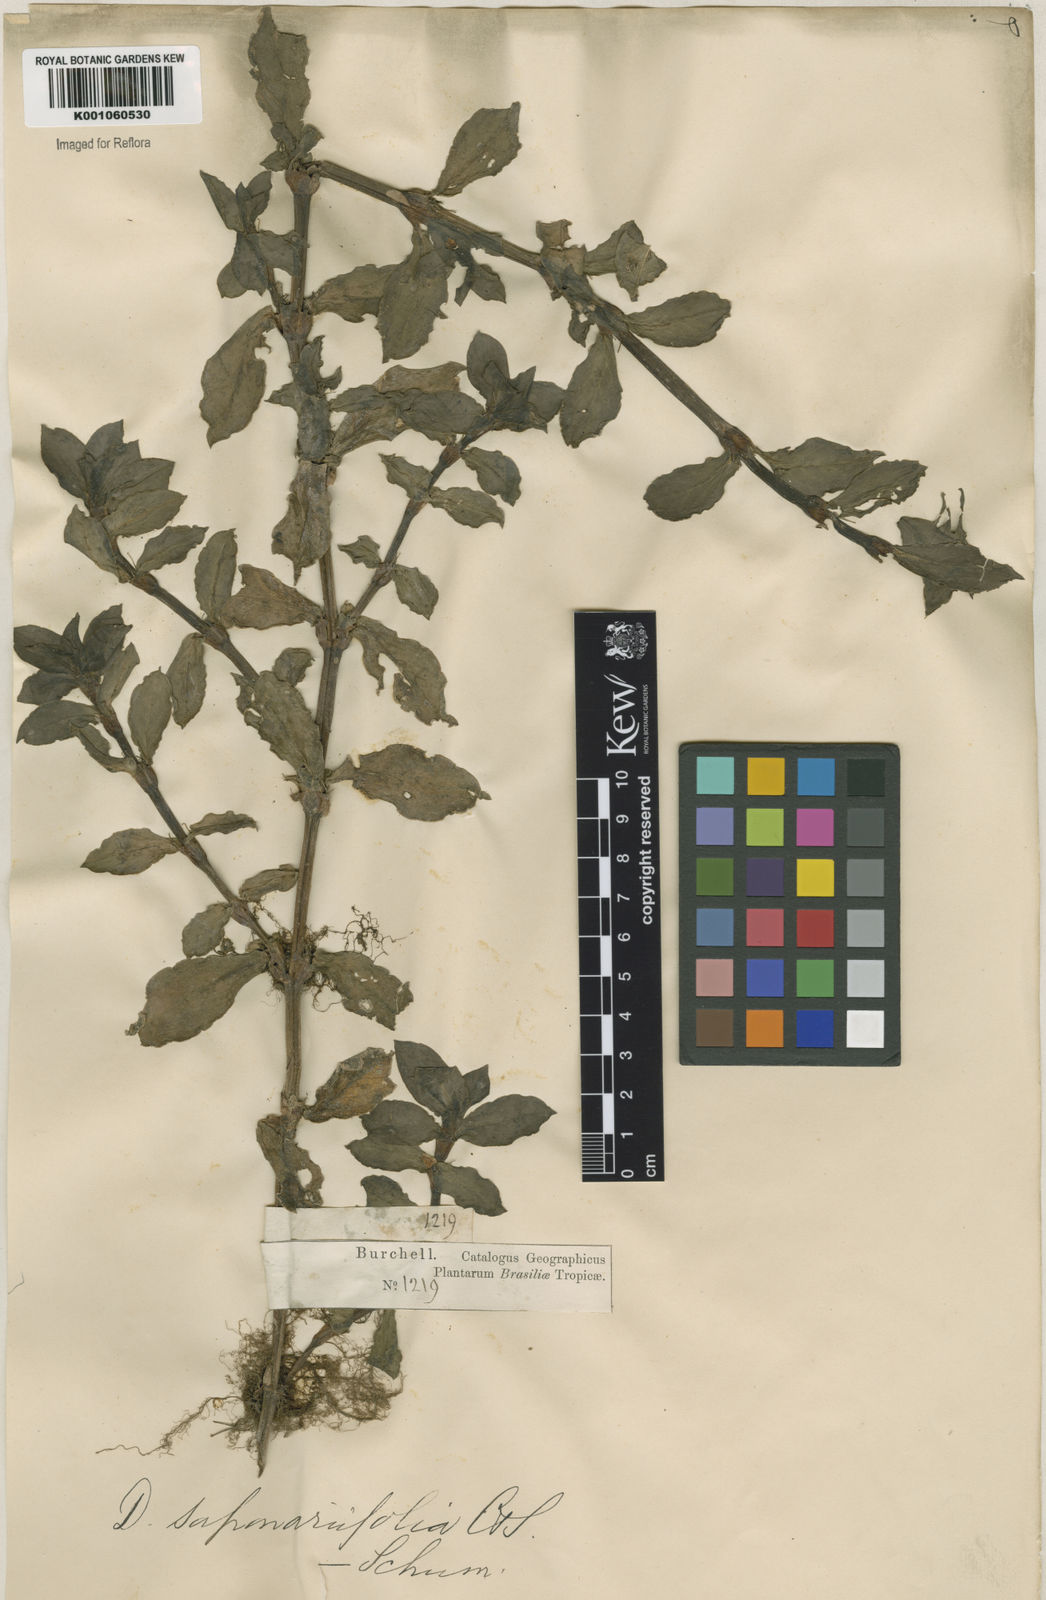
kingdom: Plantae
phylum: Tracheophyta
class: Magnoliopsida
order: Gentianales
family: Rubiaceae
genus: Diodia
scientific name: Diodia saponariifolia
